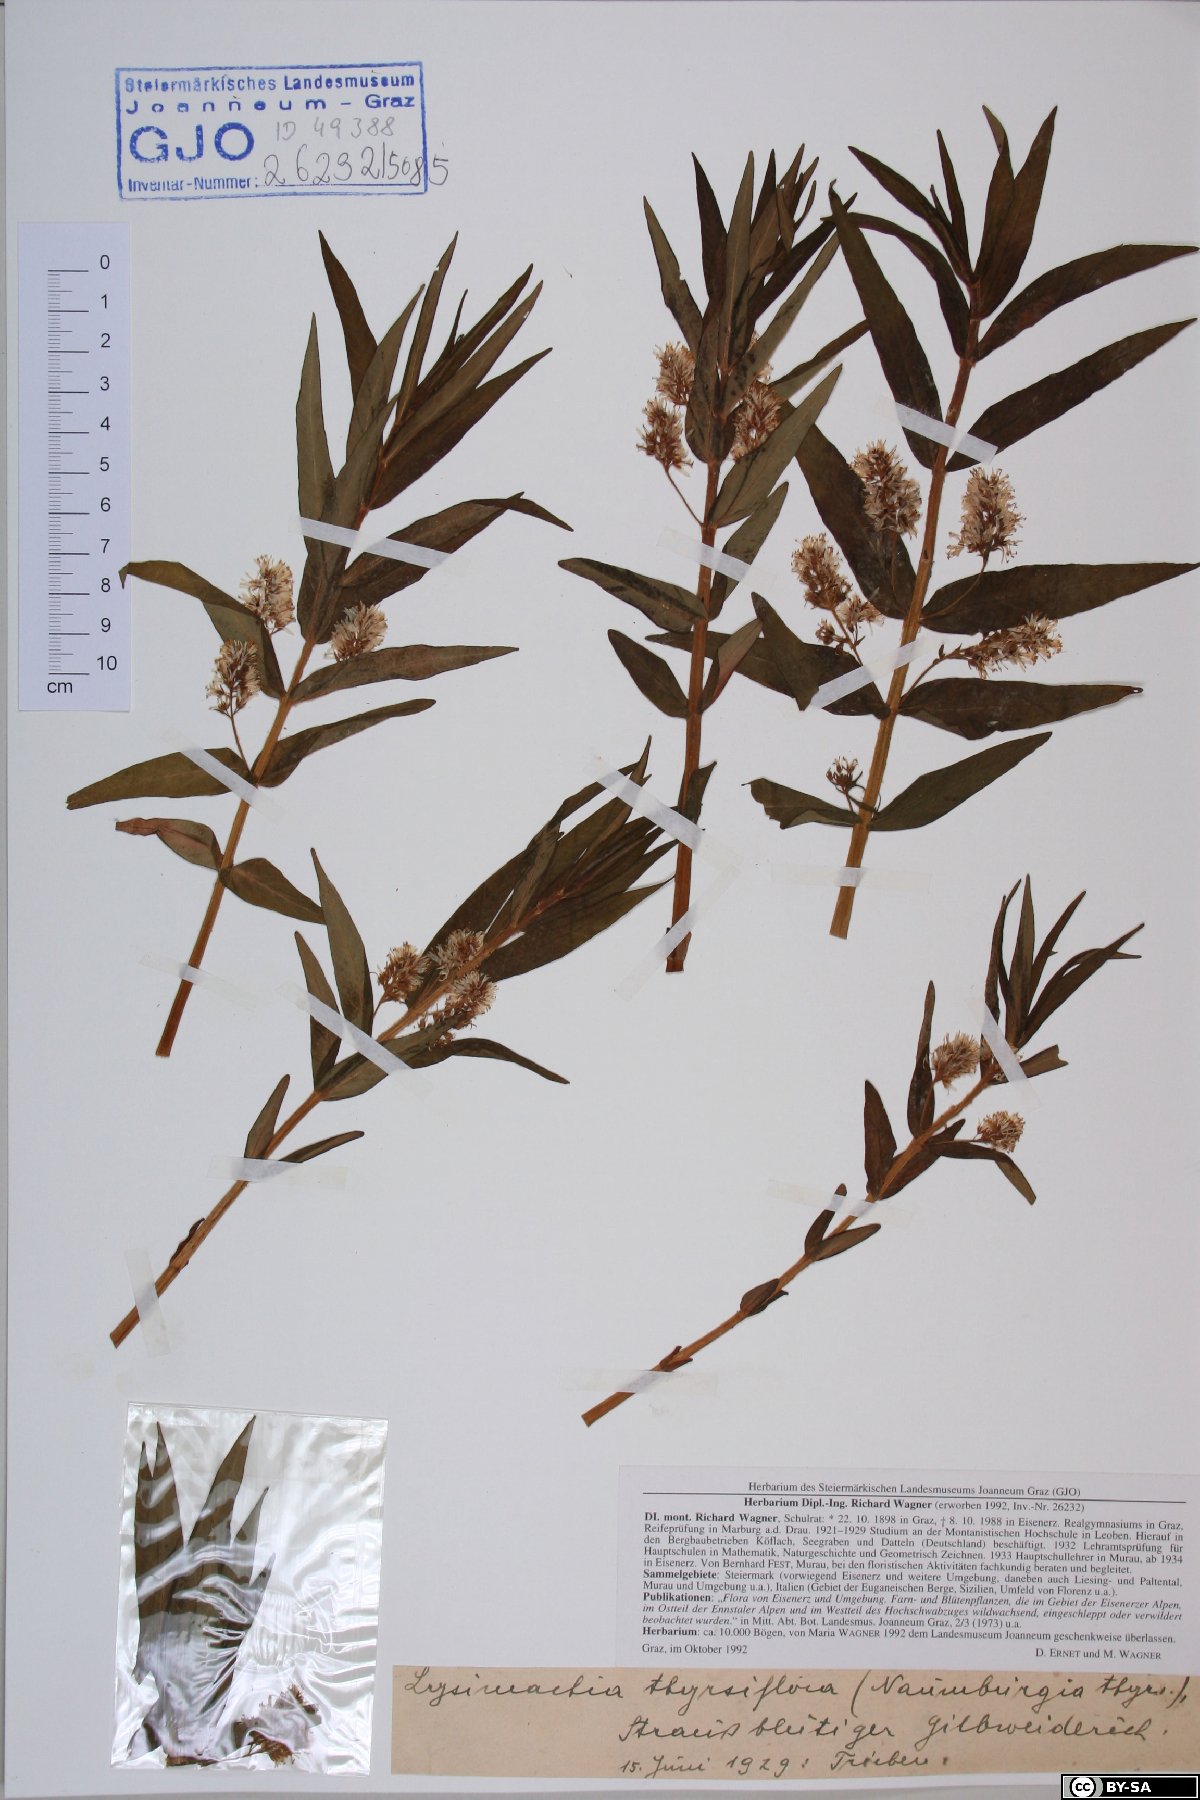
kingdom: Plantae
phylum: Tracheophyta
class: Magnoliopsida
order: Ericales
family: Primulaceae
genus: Lysimachia
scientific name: Lysimachia thyrsiflora
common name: Tufted loosestrife
